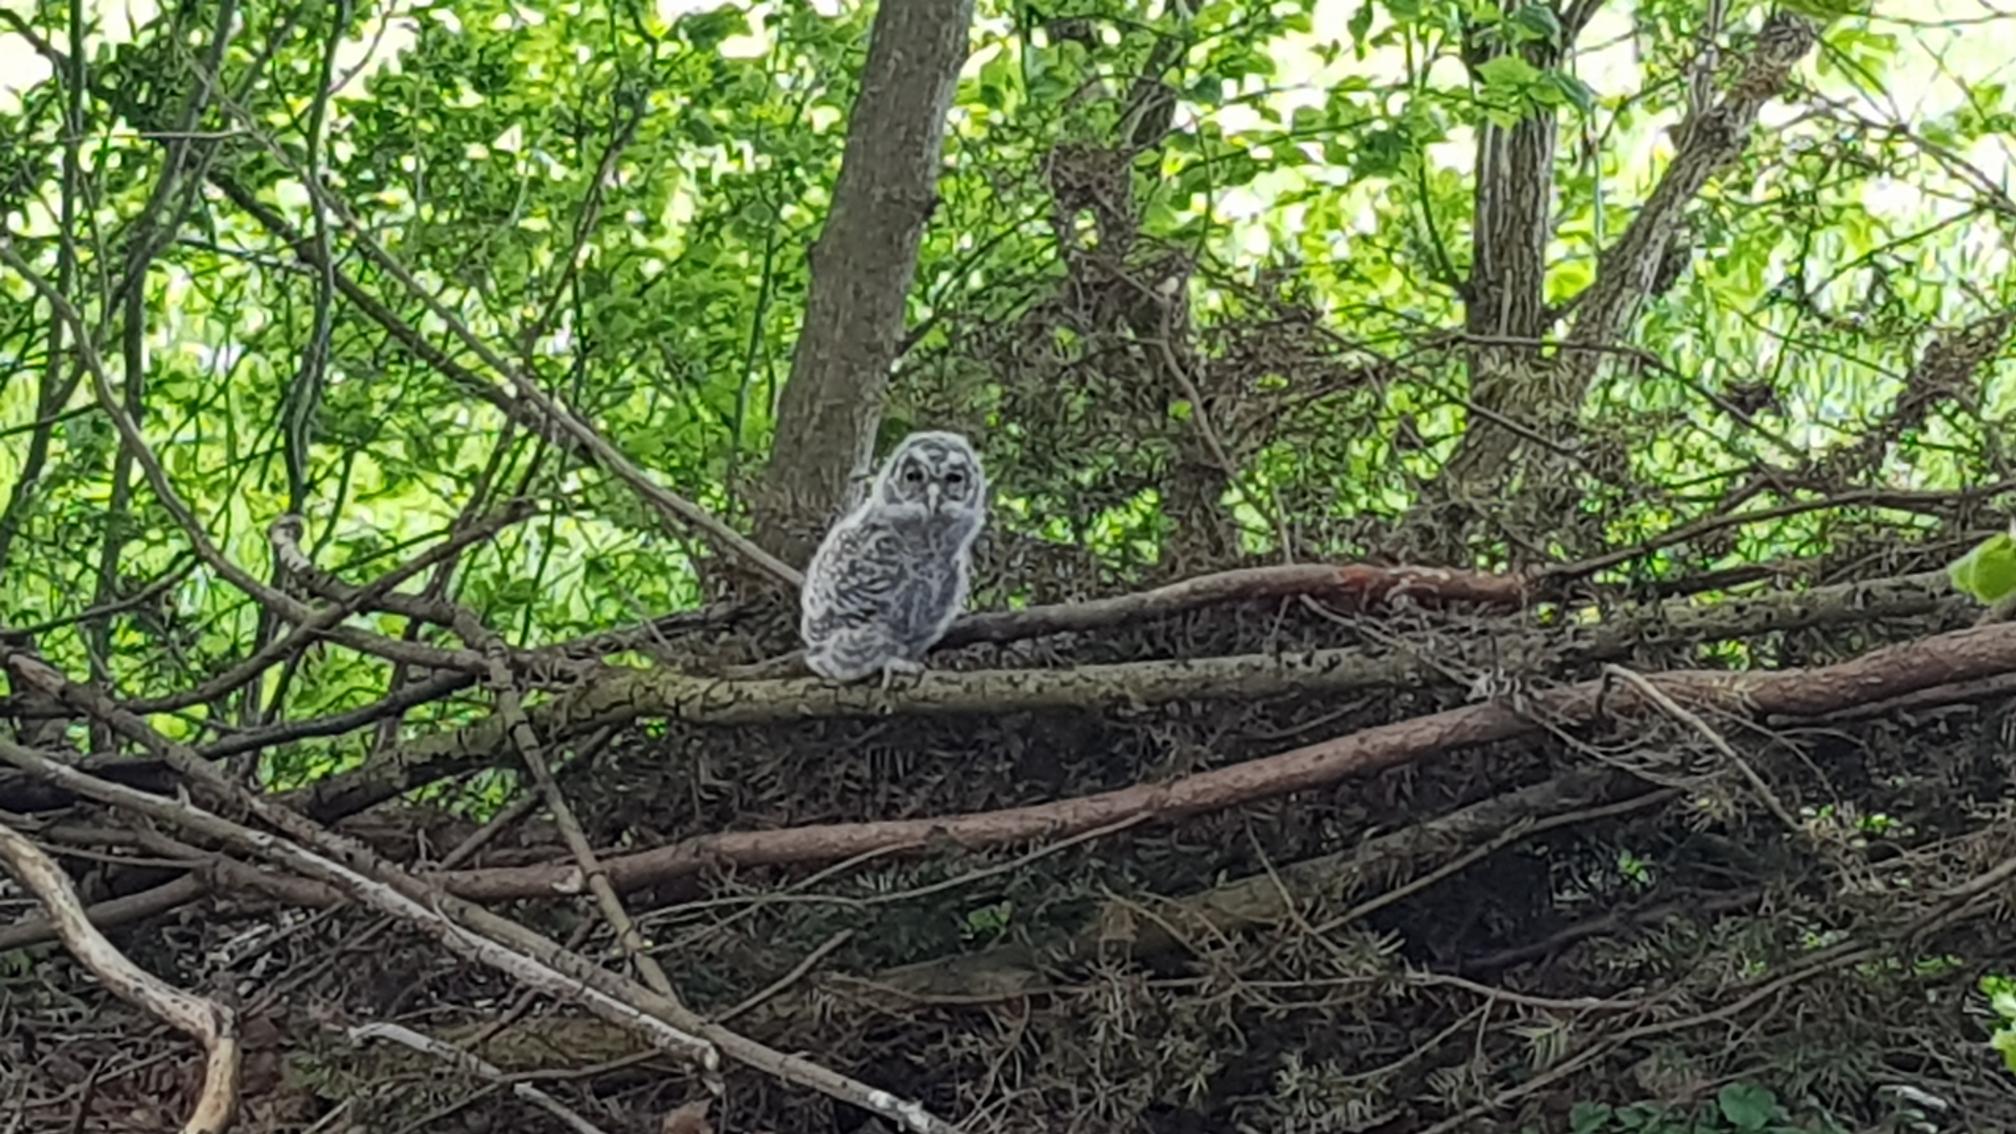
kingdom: Animalia
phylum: Chordata
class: Aves
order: Strigiformes
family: Strigidae
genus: Strix
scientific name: Strix aluco
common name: Natugle
